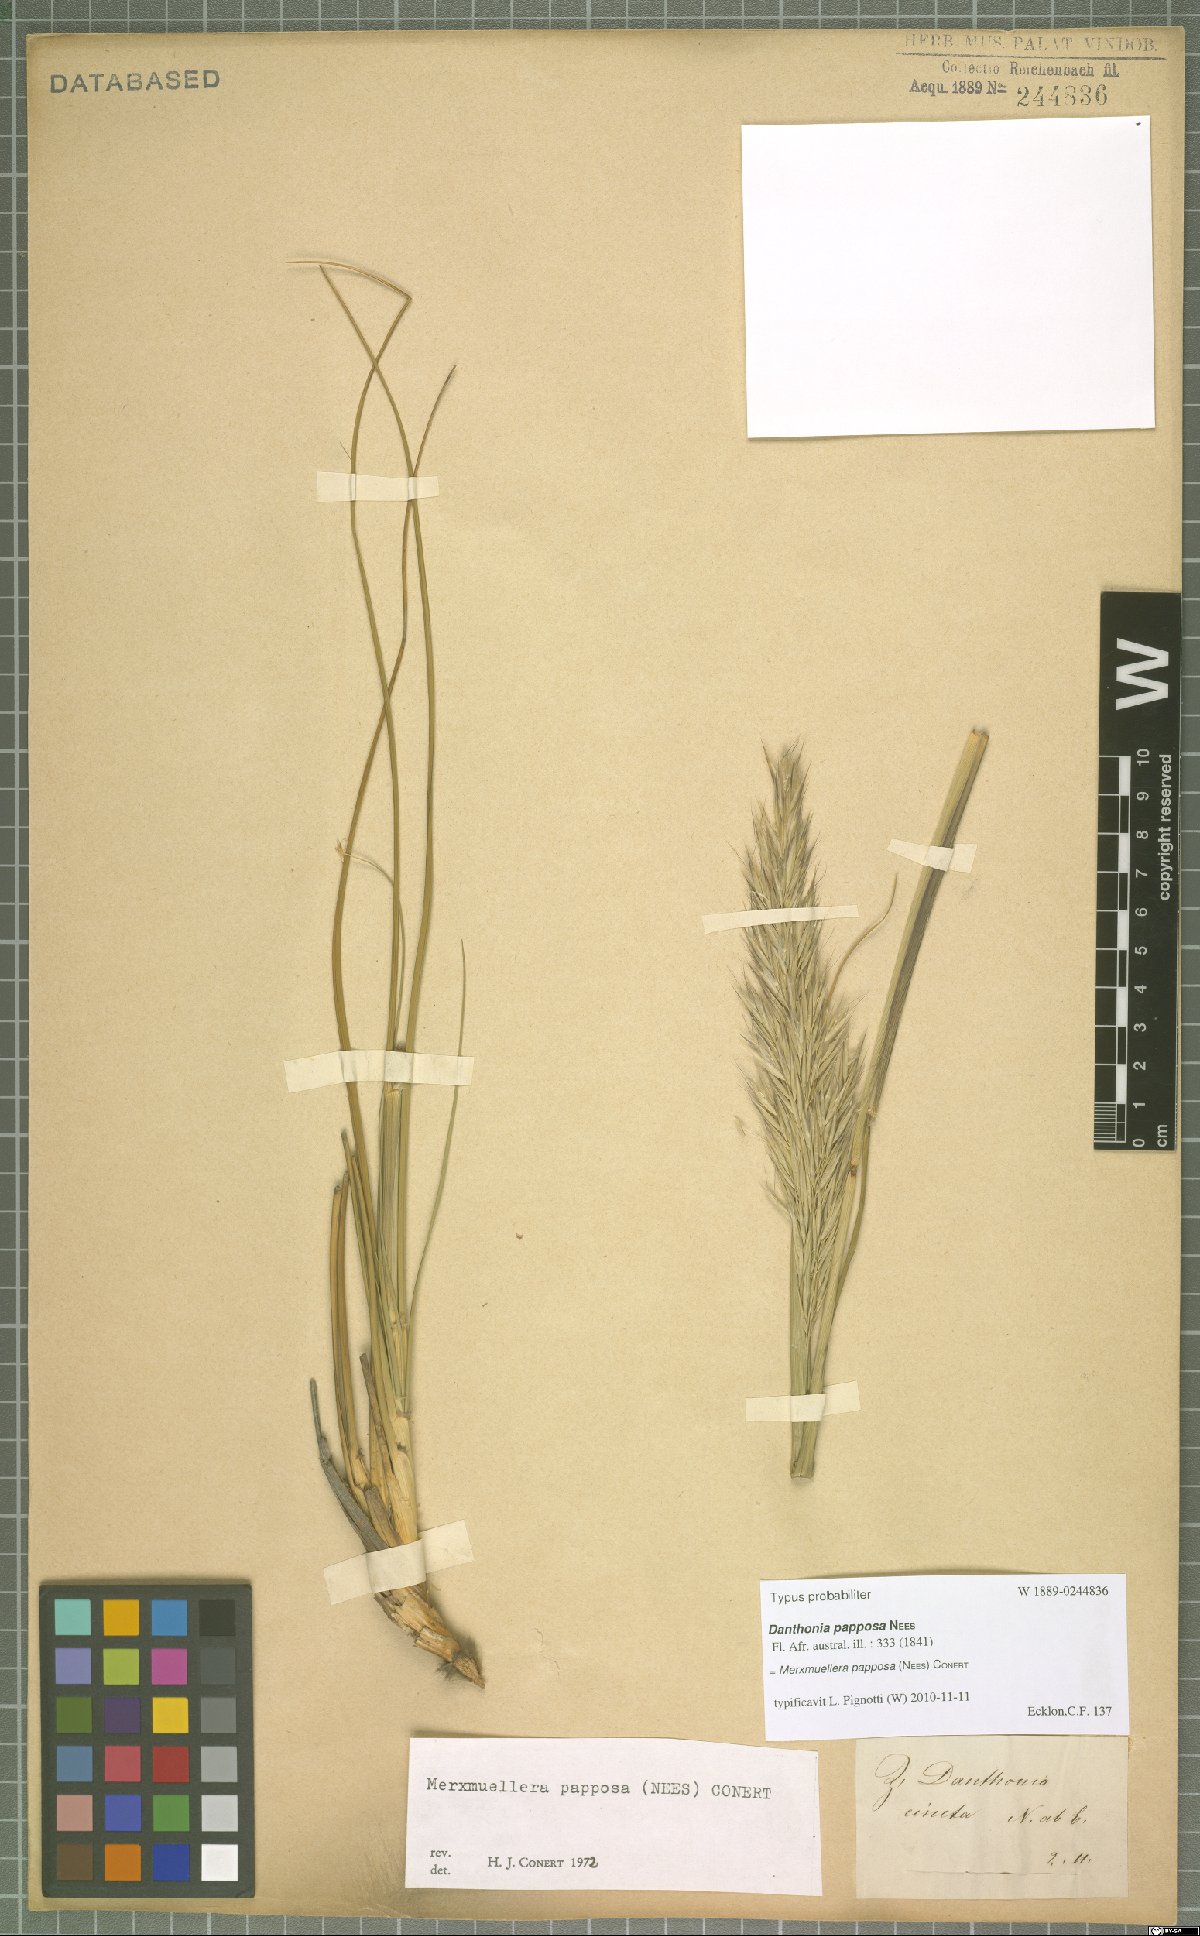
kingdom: Plantae
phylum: Tracheophyta
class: Liliopsida
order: Poales
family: Poaceae
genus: Ellisochloa
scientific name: Ellisochloa papposa
